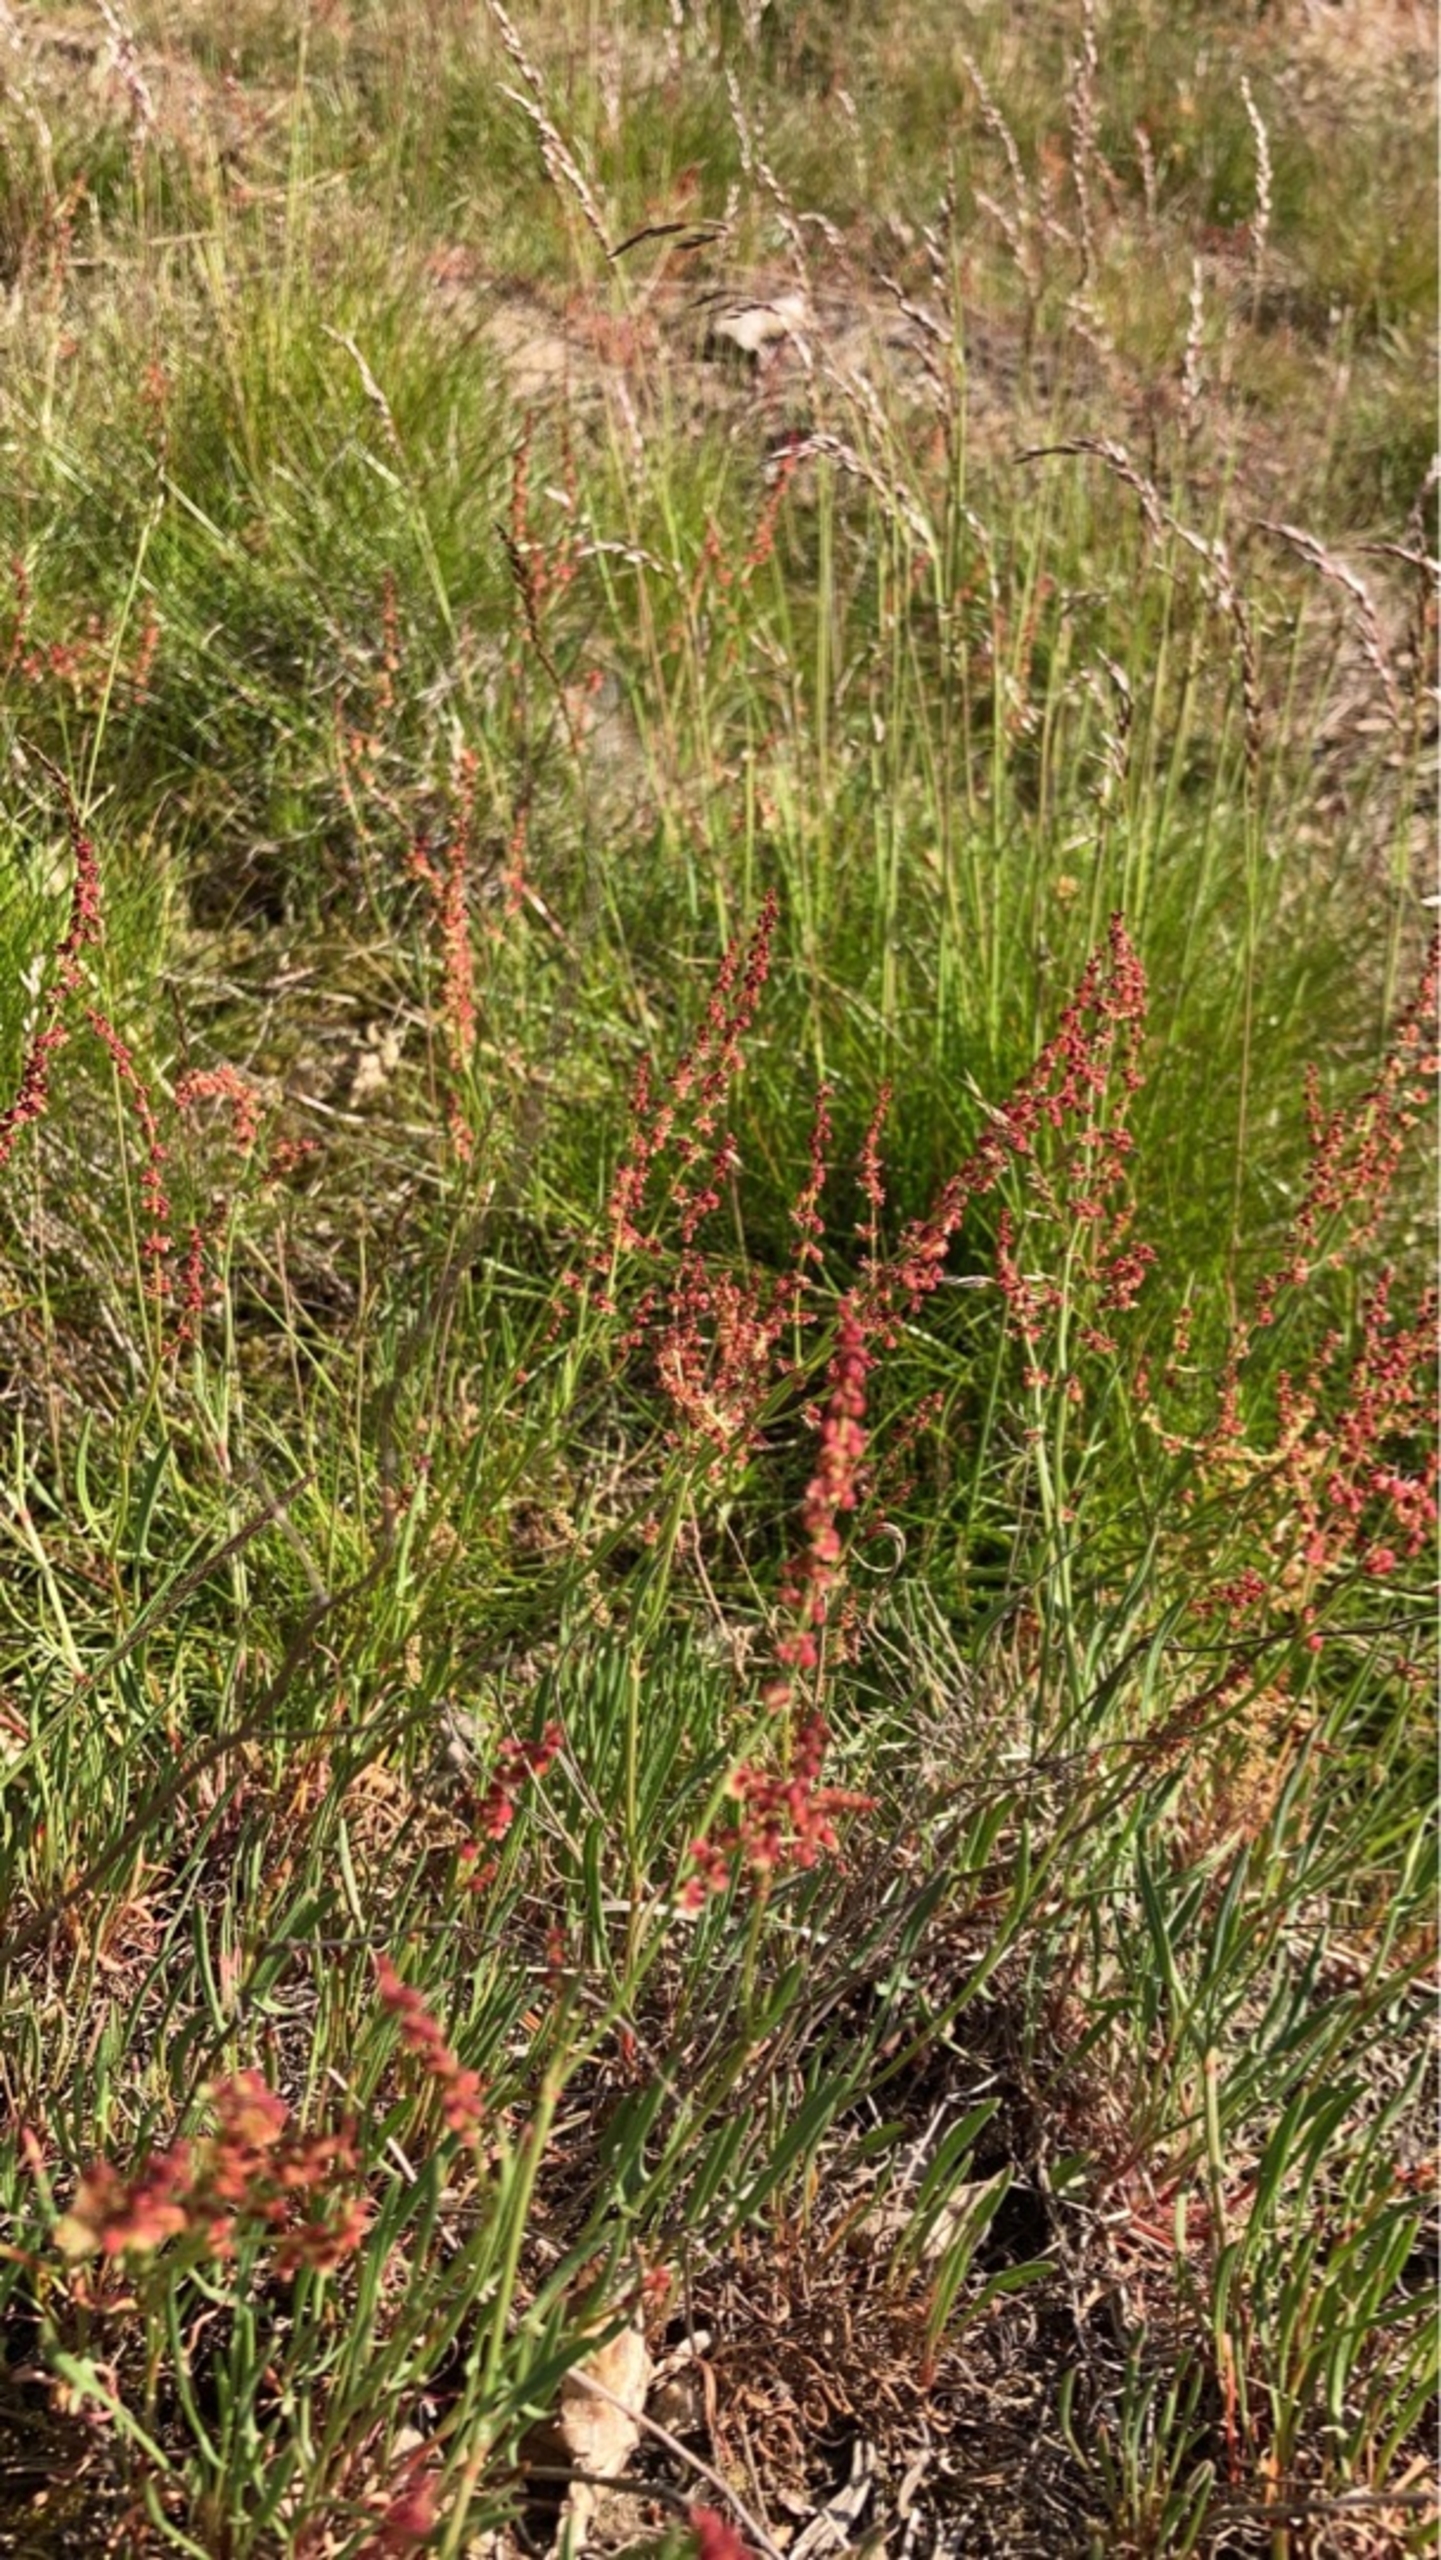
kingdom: Plantae
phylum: Tracheophyta
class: Magnoliopsida
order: Caryophyllales
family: Polygonaceae
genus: Rumex
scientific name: Rumex acetosella
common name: Rødknæ
